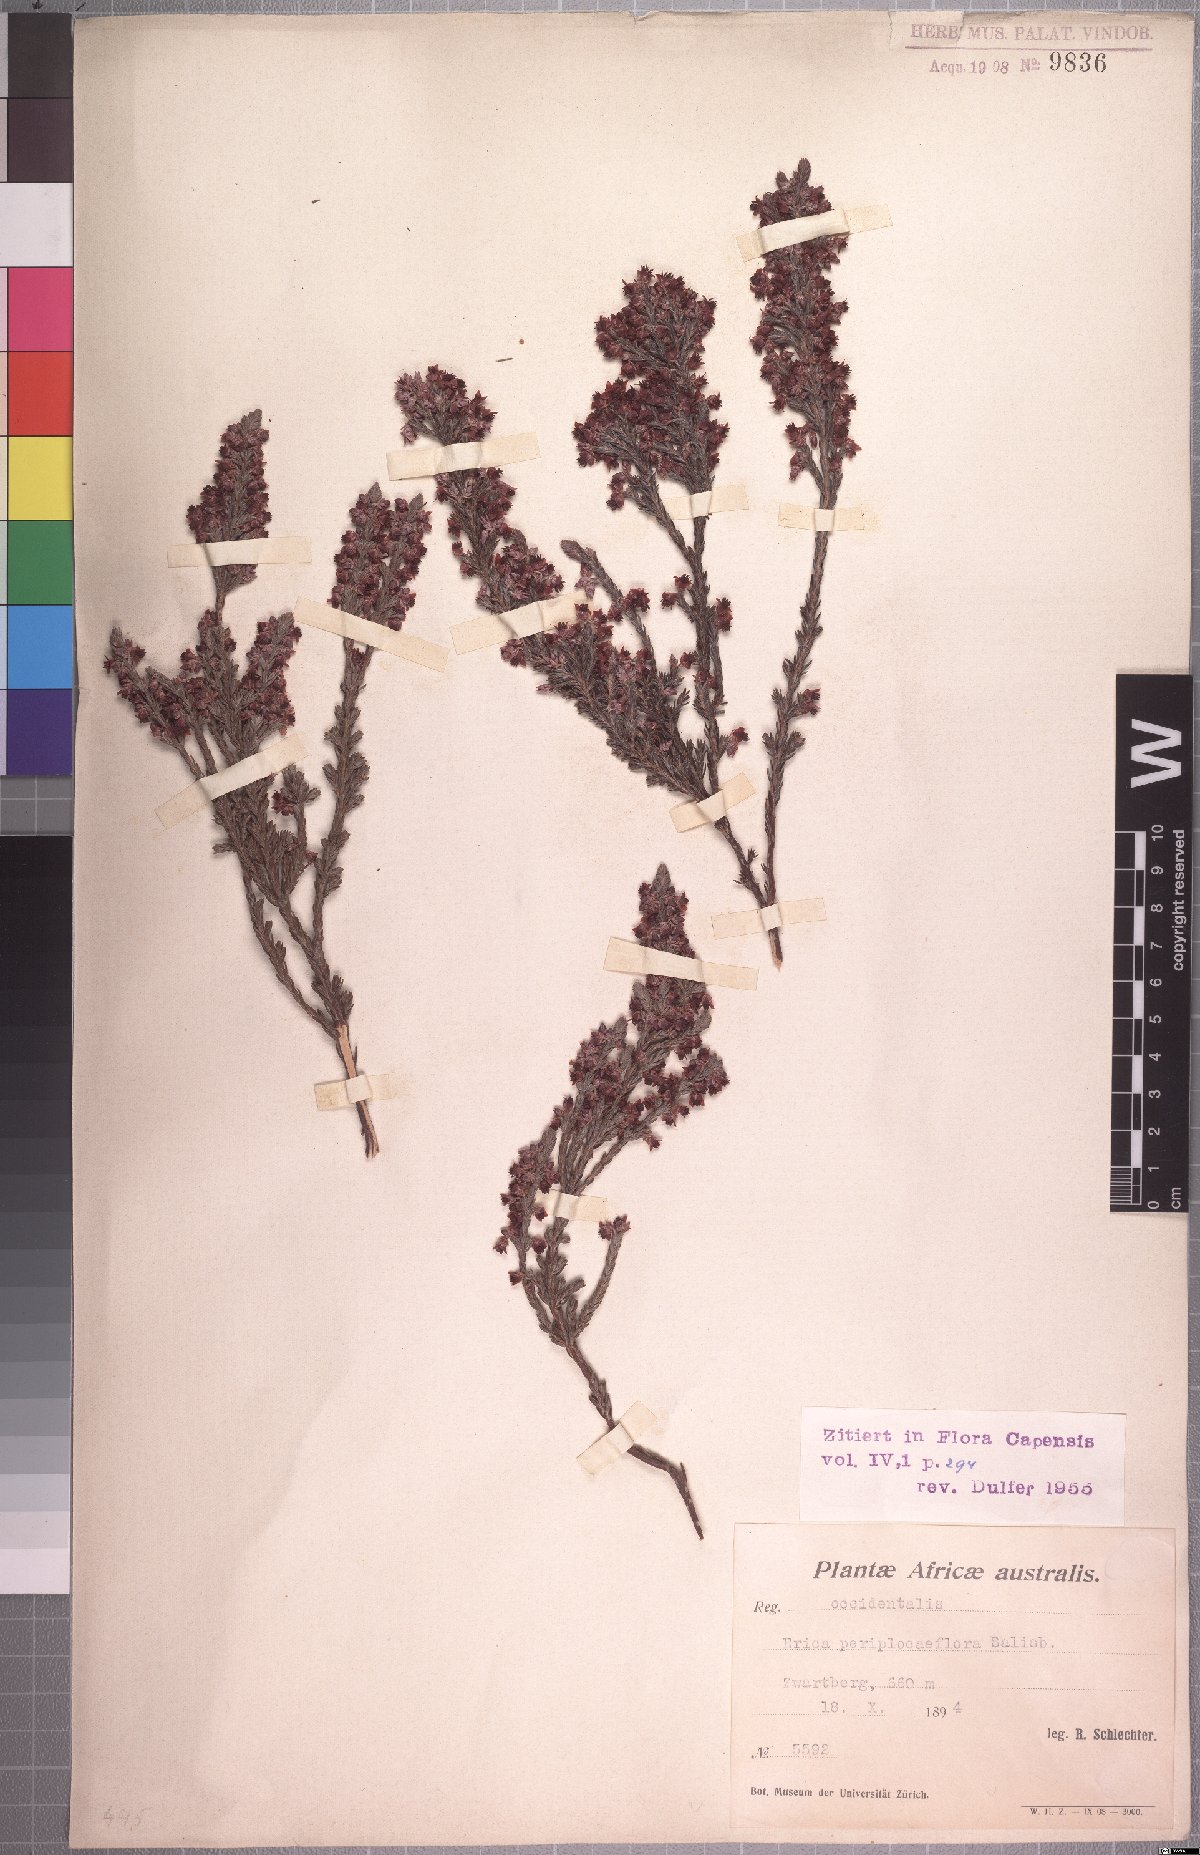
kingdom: Plantae
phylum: Tracheophyta
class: Magnoliopsida
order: Ericales
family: Ericaceae
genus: Erica
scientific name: Erica calycina
